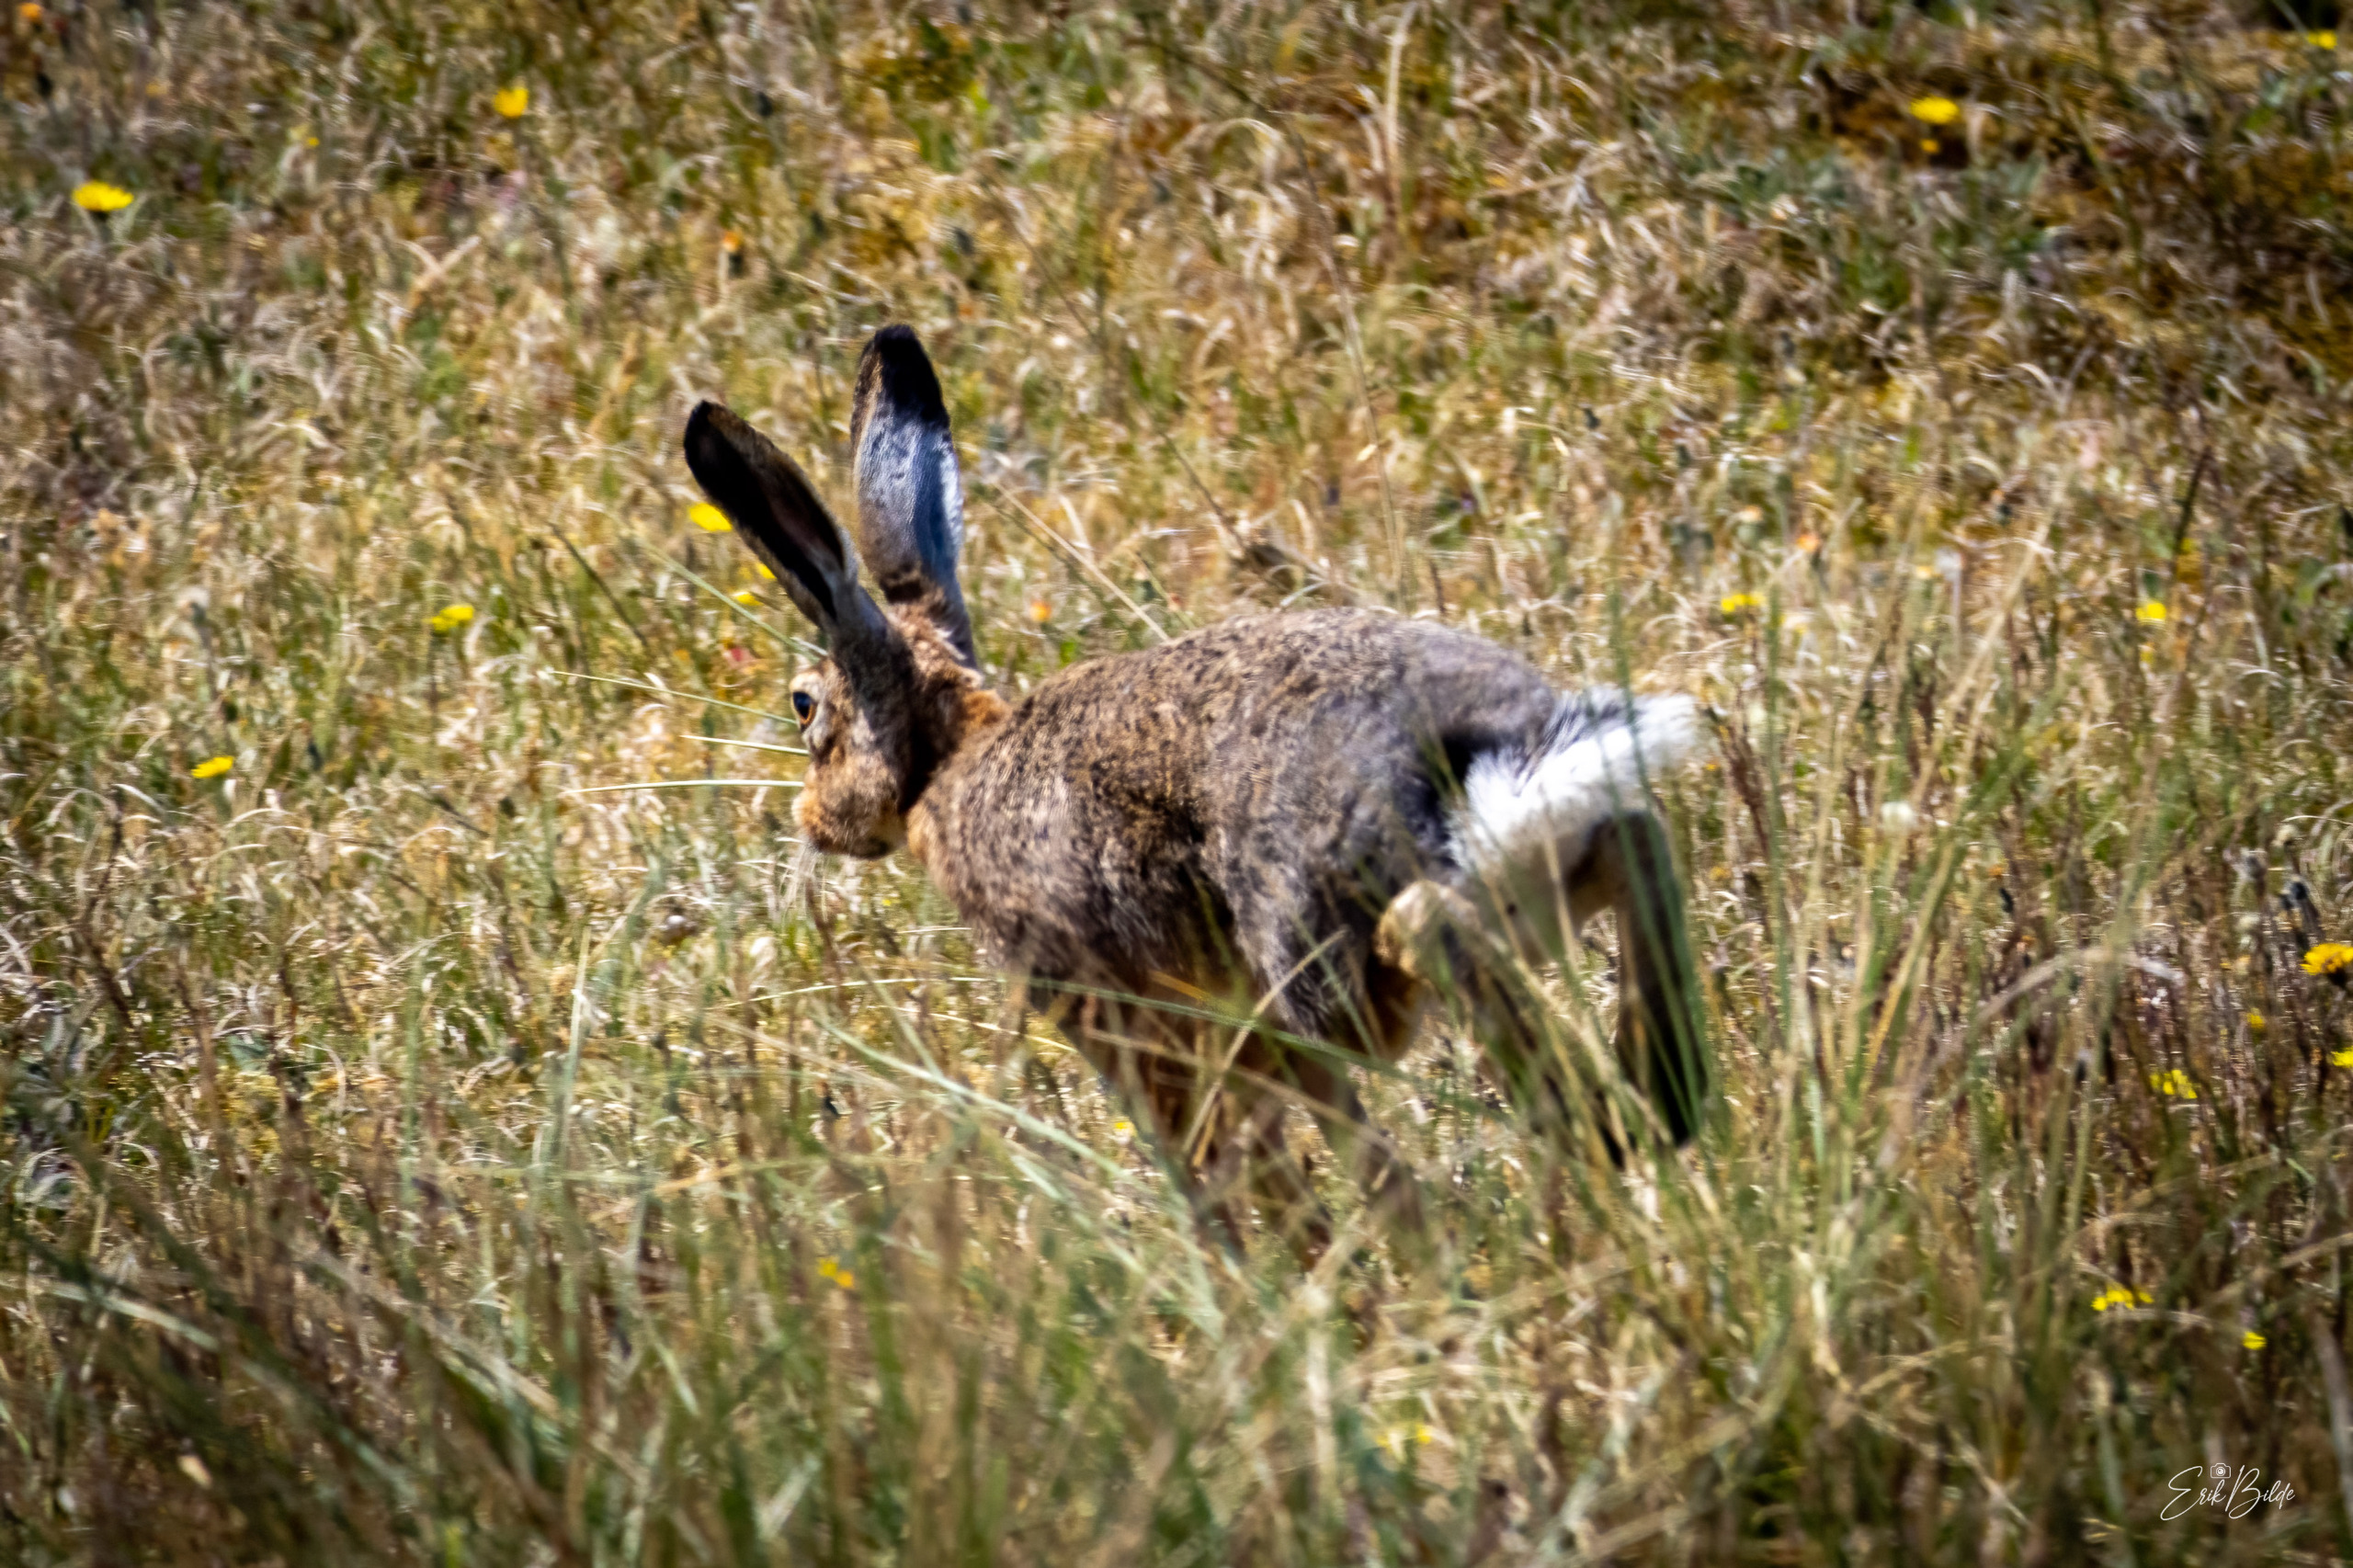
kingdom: Animalia
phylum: Chordata
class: Mammalia
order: Lagomorpha
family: Leporidae
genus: Lepus
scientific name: Lepus europaeus
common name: Hare
